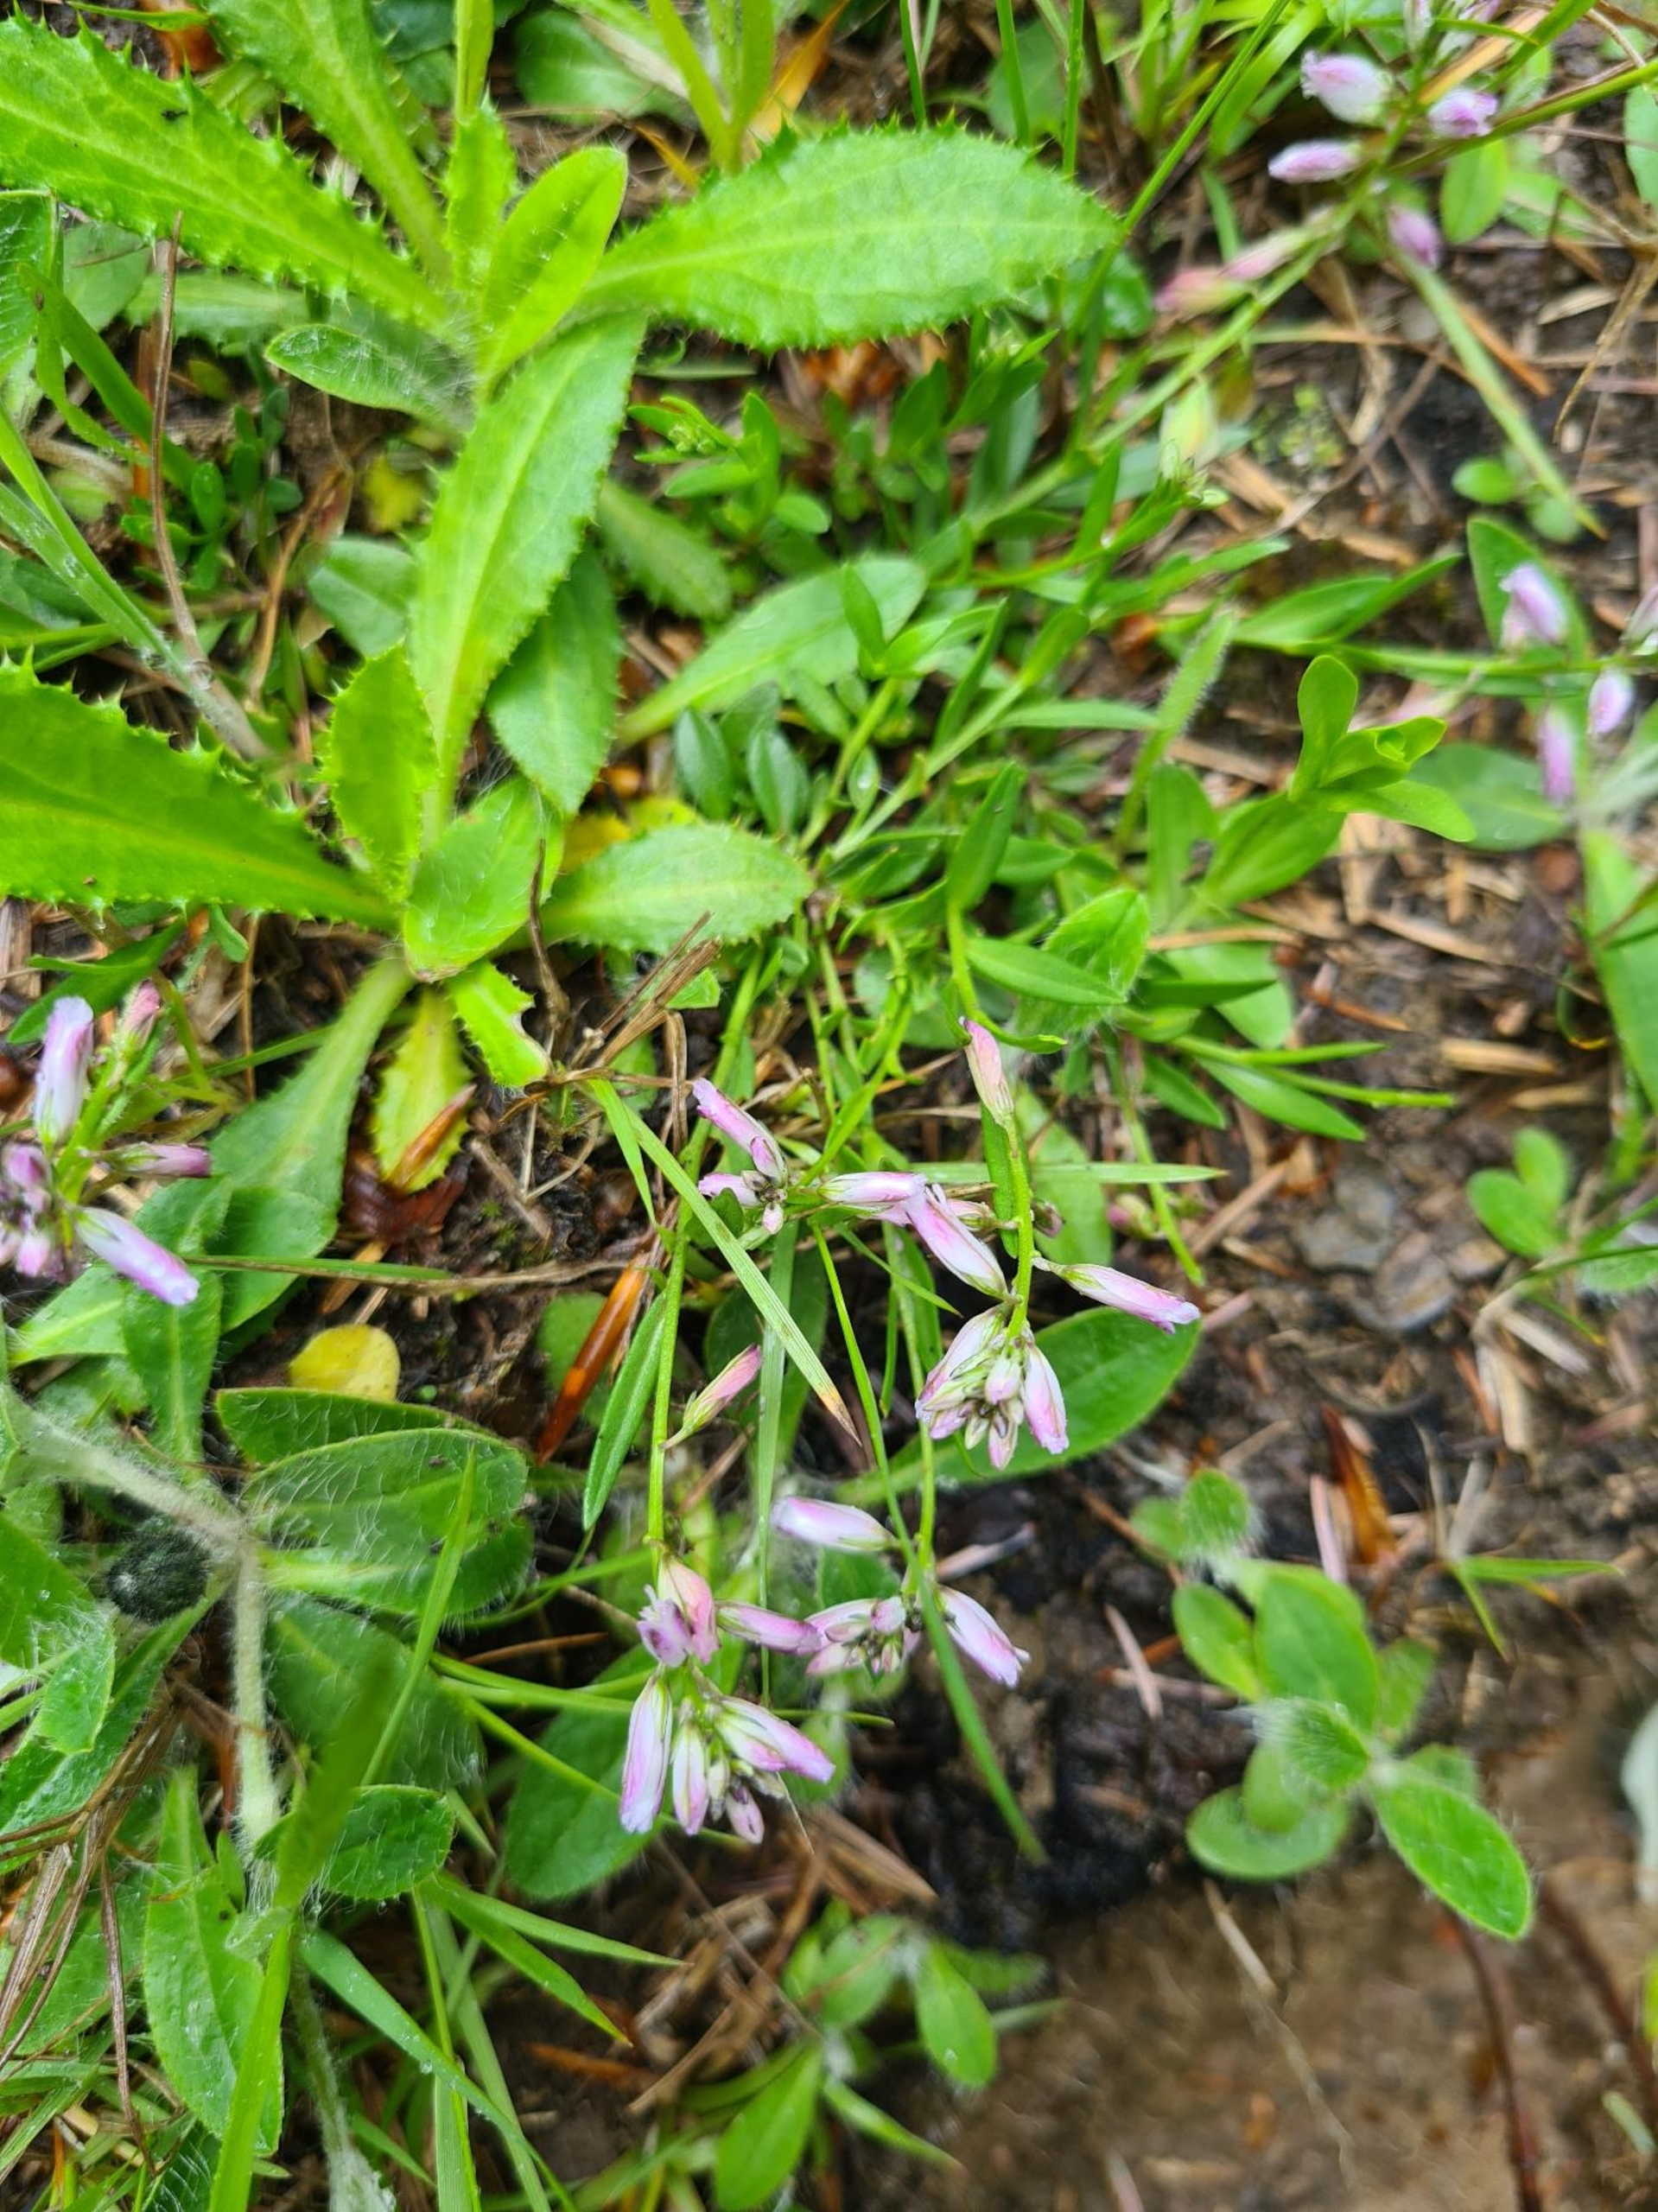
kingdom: Plantae
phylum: Tracheophyta
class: Magnoliopsida
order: Fabales
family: Polygalaceae
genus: Polygala
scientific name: Polygala vulgaris
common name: Almindelig mælkeurt
